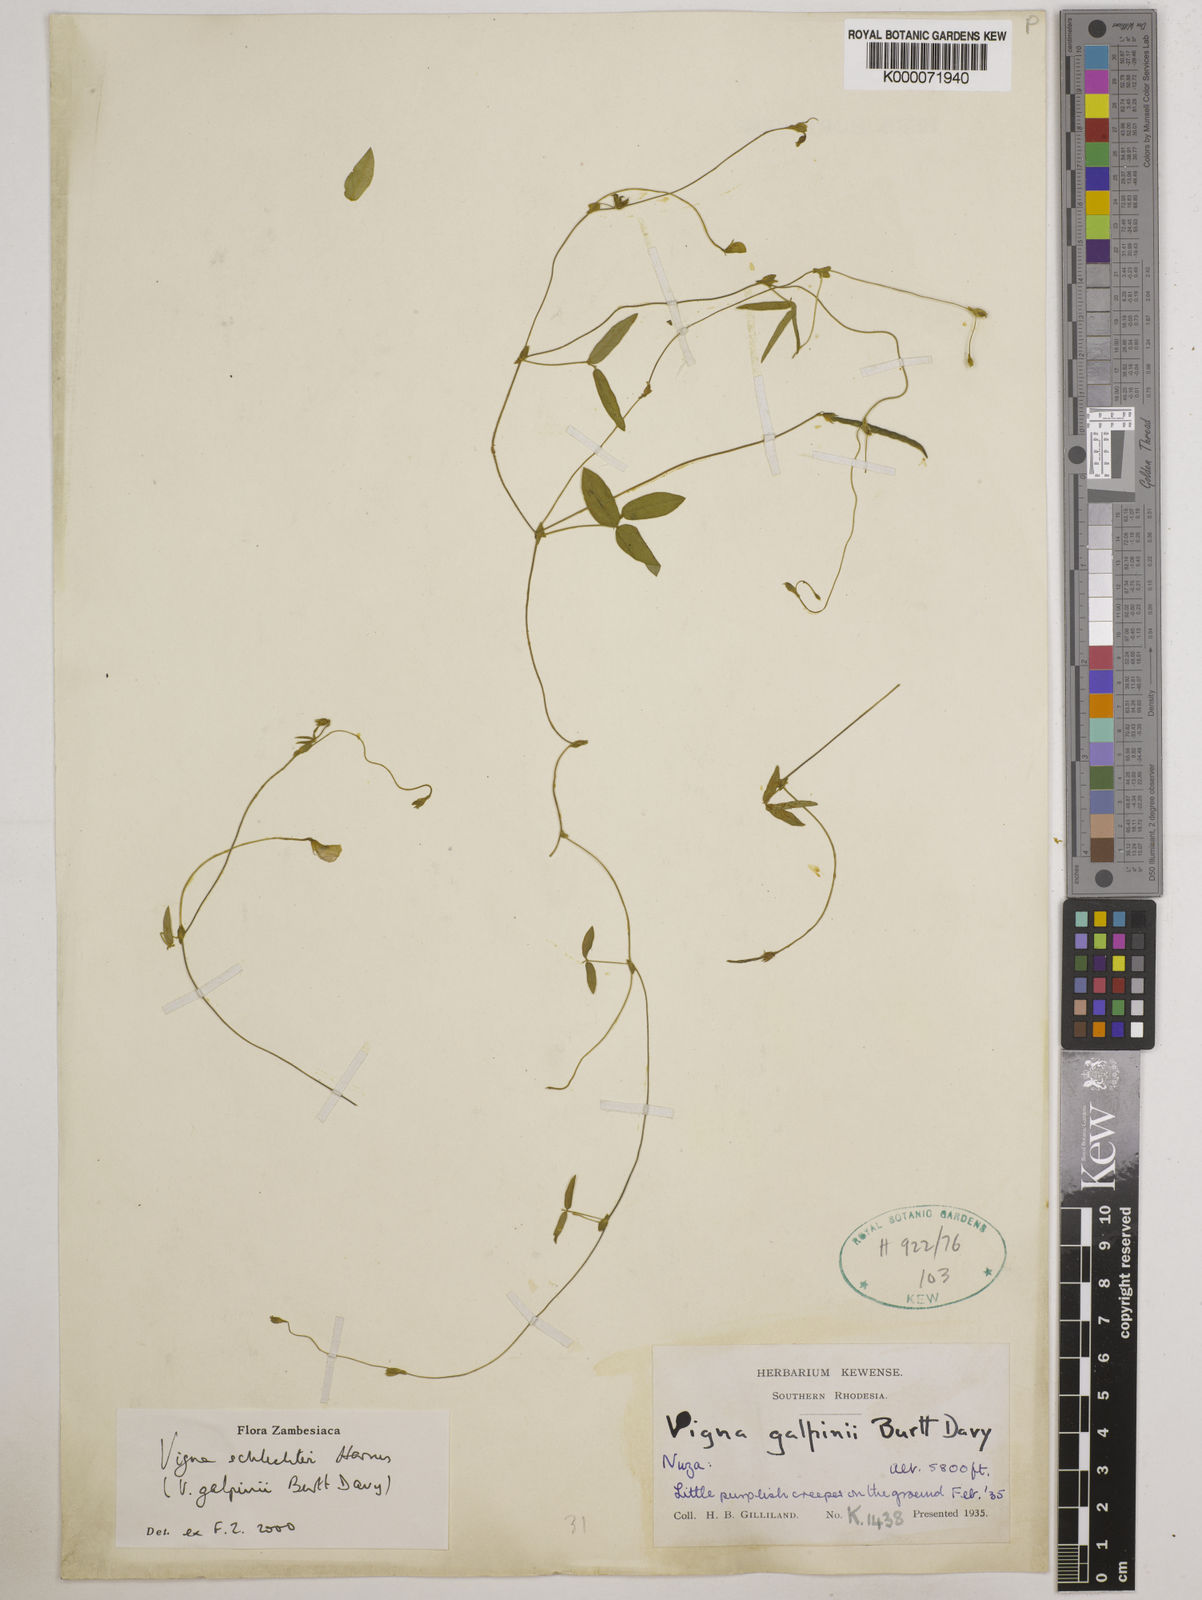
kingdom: Plantae
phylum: Tracheophyta
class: Magnoliopsida
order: Fabales
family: Fabaceae
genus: Vigna
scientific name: Vigna schlechteri
